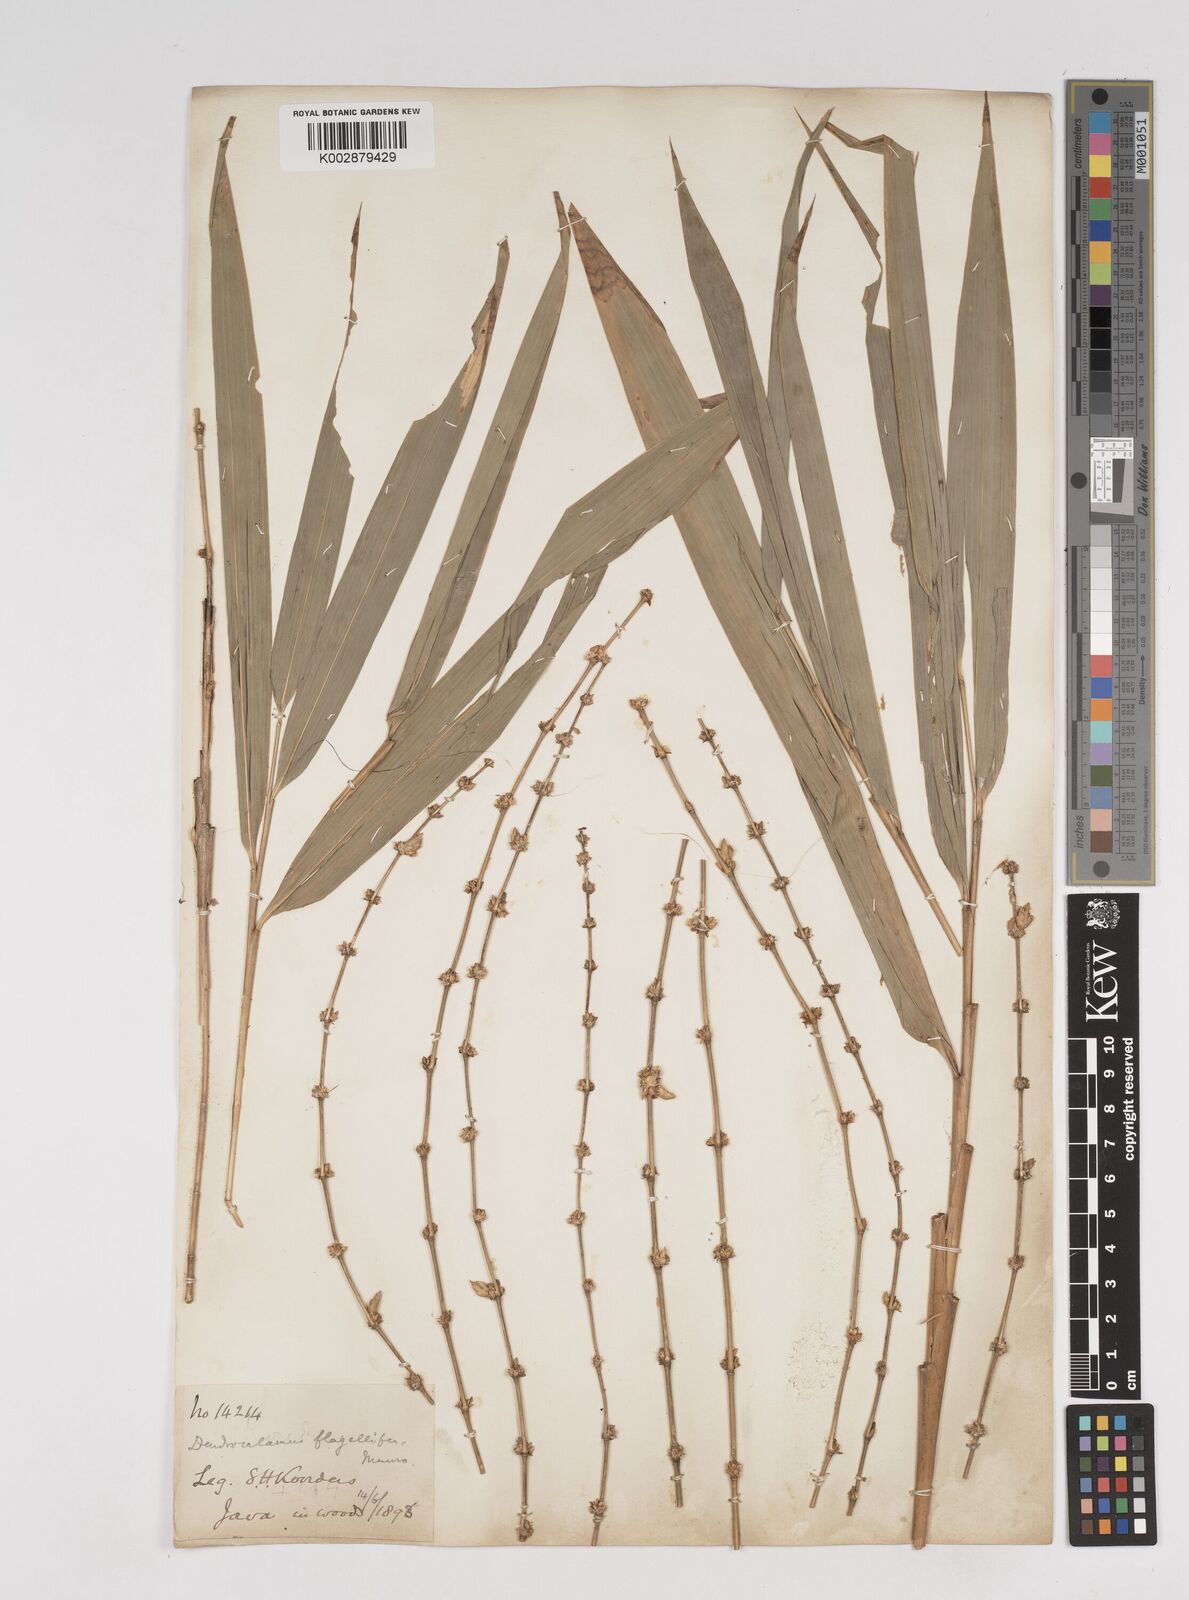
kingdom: Plantae
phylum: Tracheophyta
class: Liliopsida
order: Poales
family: Poaceae
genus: Dendrocalamus
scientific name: Dendrocalamus asper
